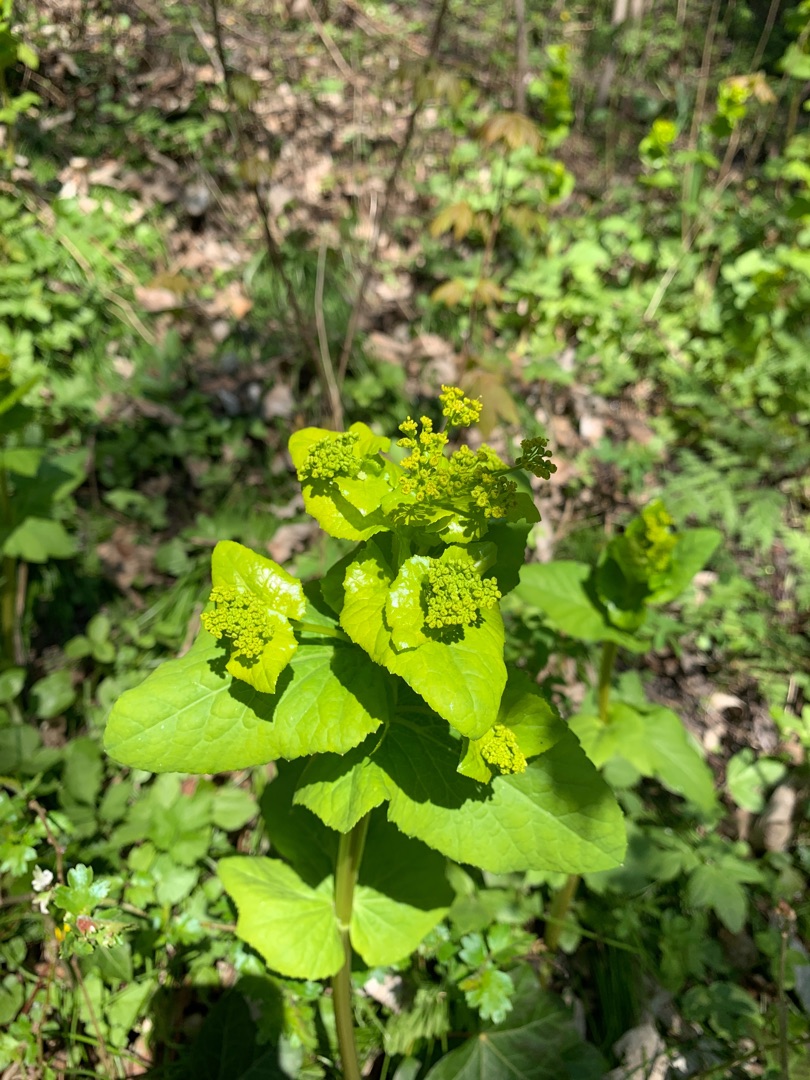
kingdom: Plantae
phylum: Tracheophyta
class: Magnoliopsida
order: Apiales
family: Apiaceae
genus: Smyrnium
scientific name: Smyrnium perfoliatum
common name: Lundgylden
